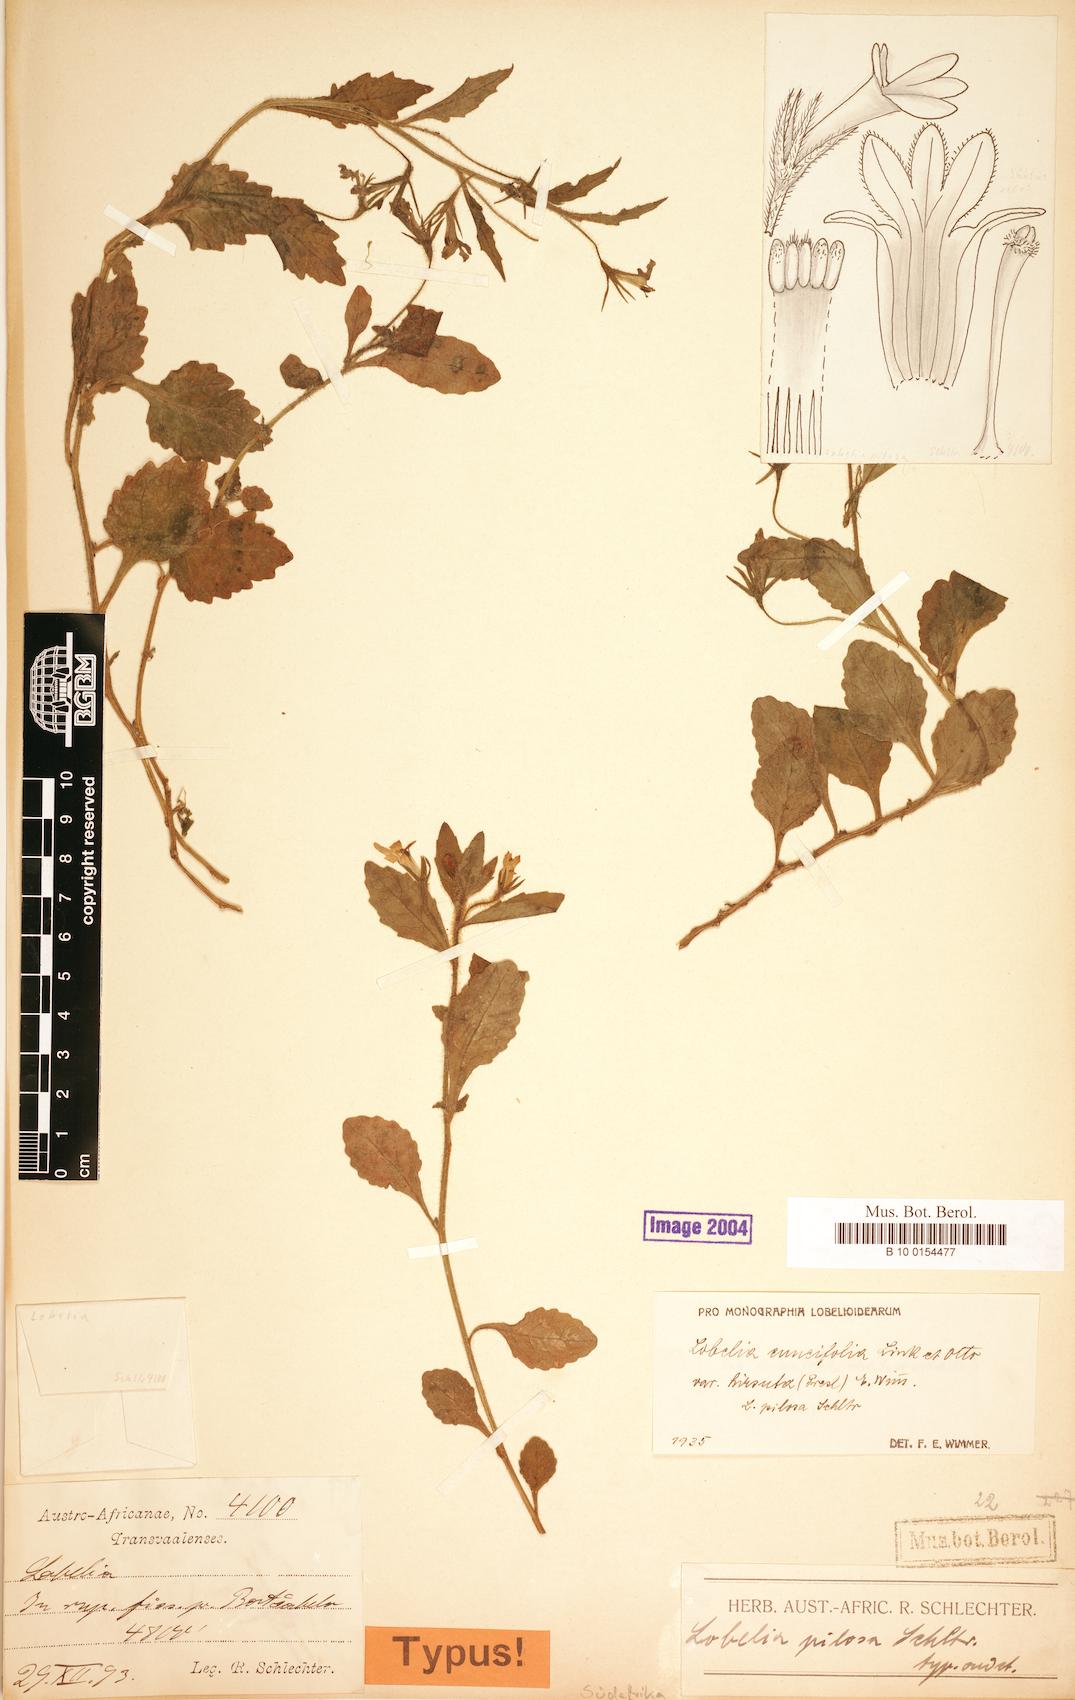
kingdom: Plantae
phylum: Tracheophyta
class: Magnoliopsida
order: Asterales
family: Campanulaceae
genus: Lobelia
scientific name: Lobelia cuneifolia
